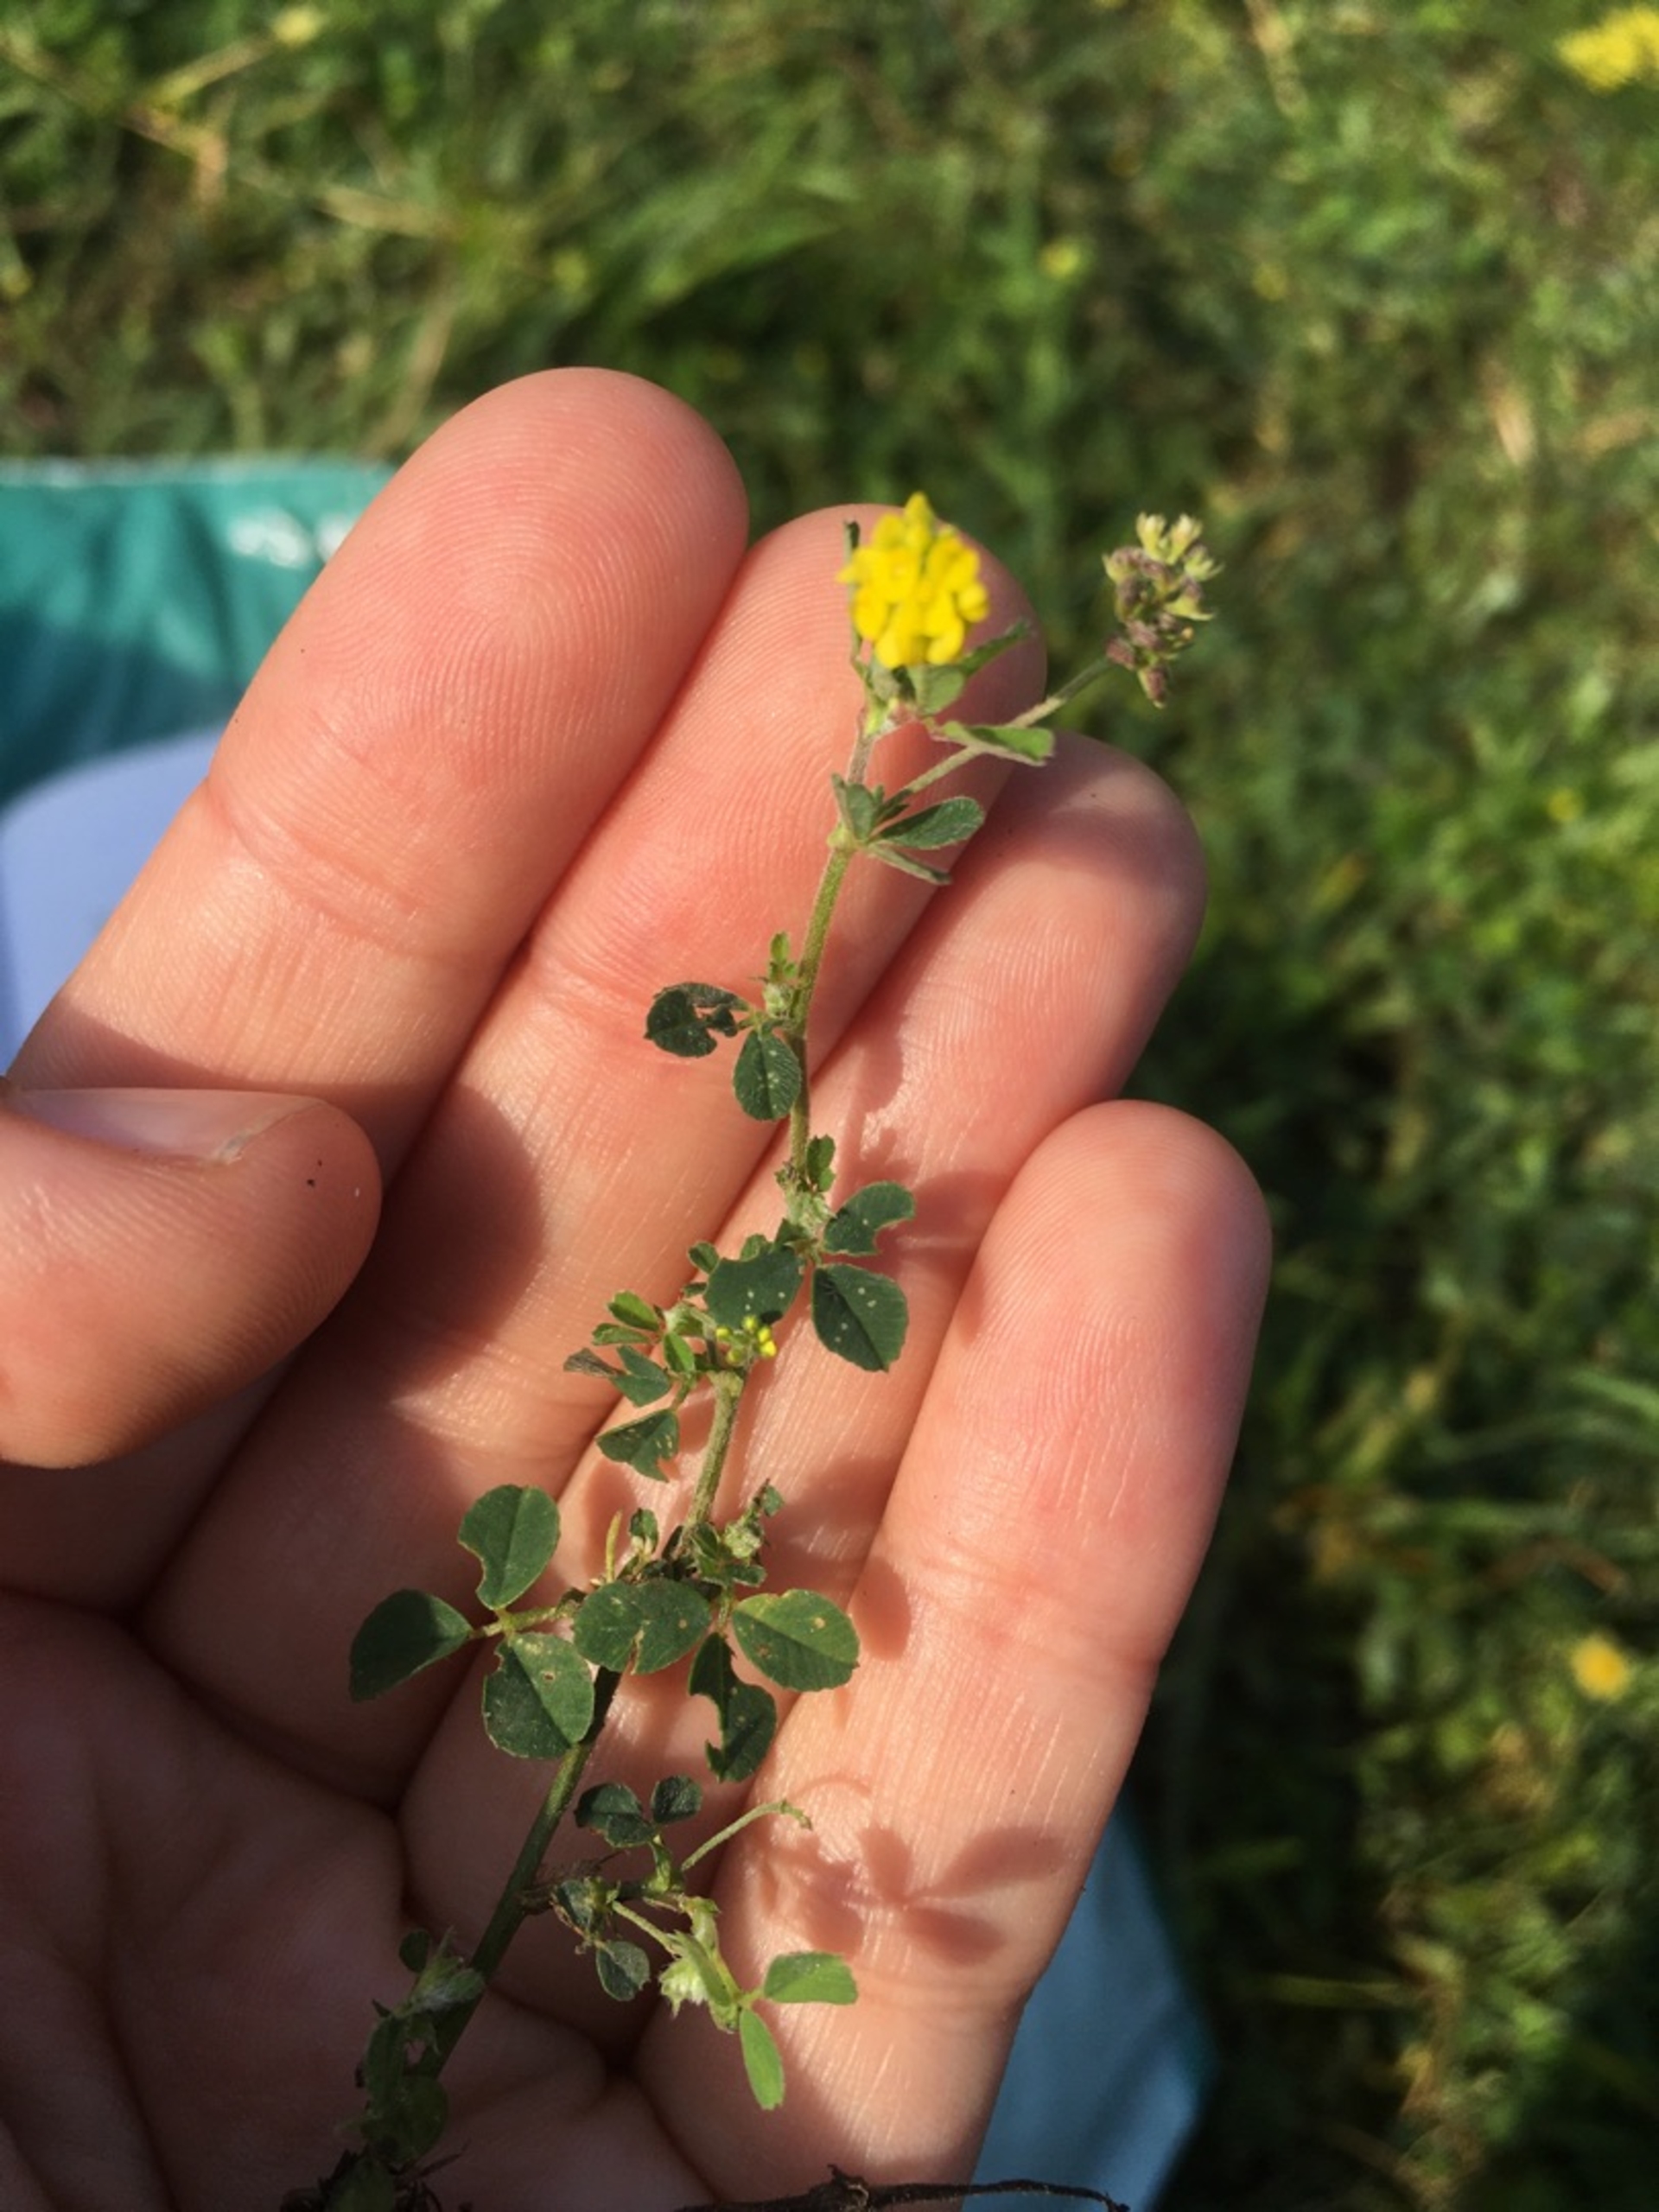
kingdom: Plantae
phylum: Tracheophyta
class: Magnoliopsida
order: Fabales
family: Fabaceae
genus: Medicago
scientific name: Medicago lupulina
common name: Humle-sneglebælg
